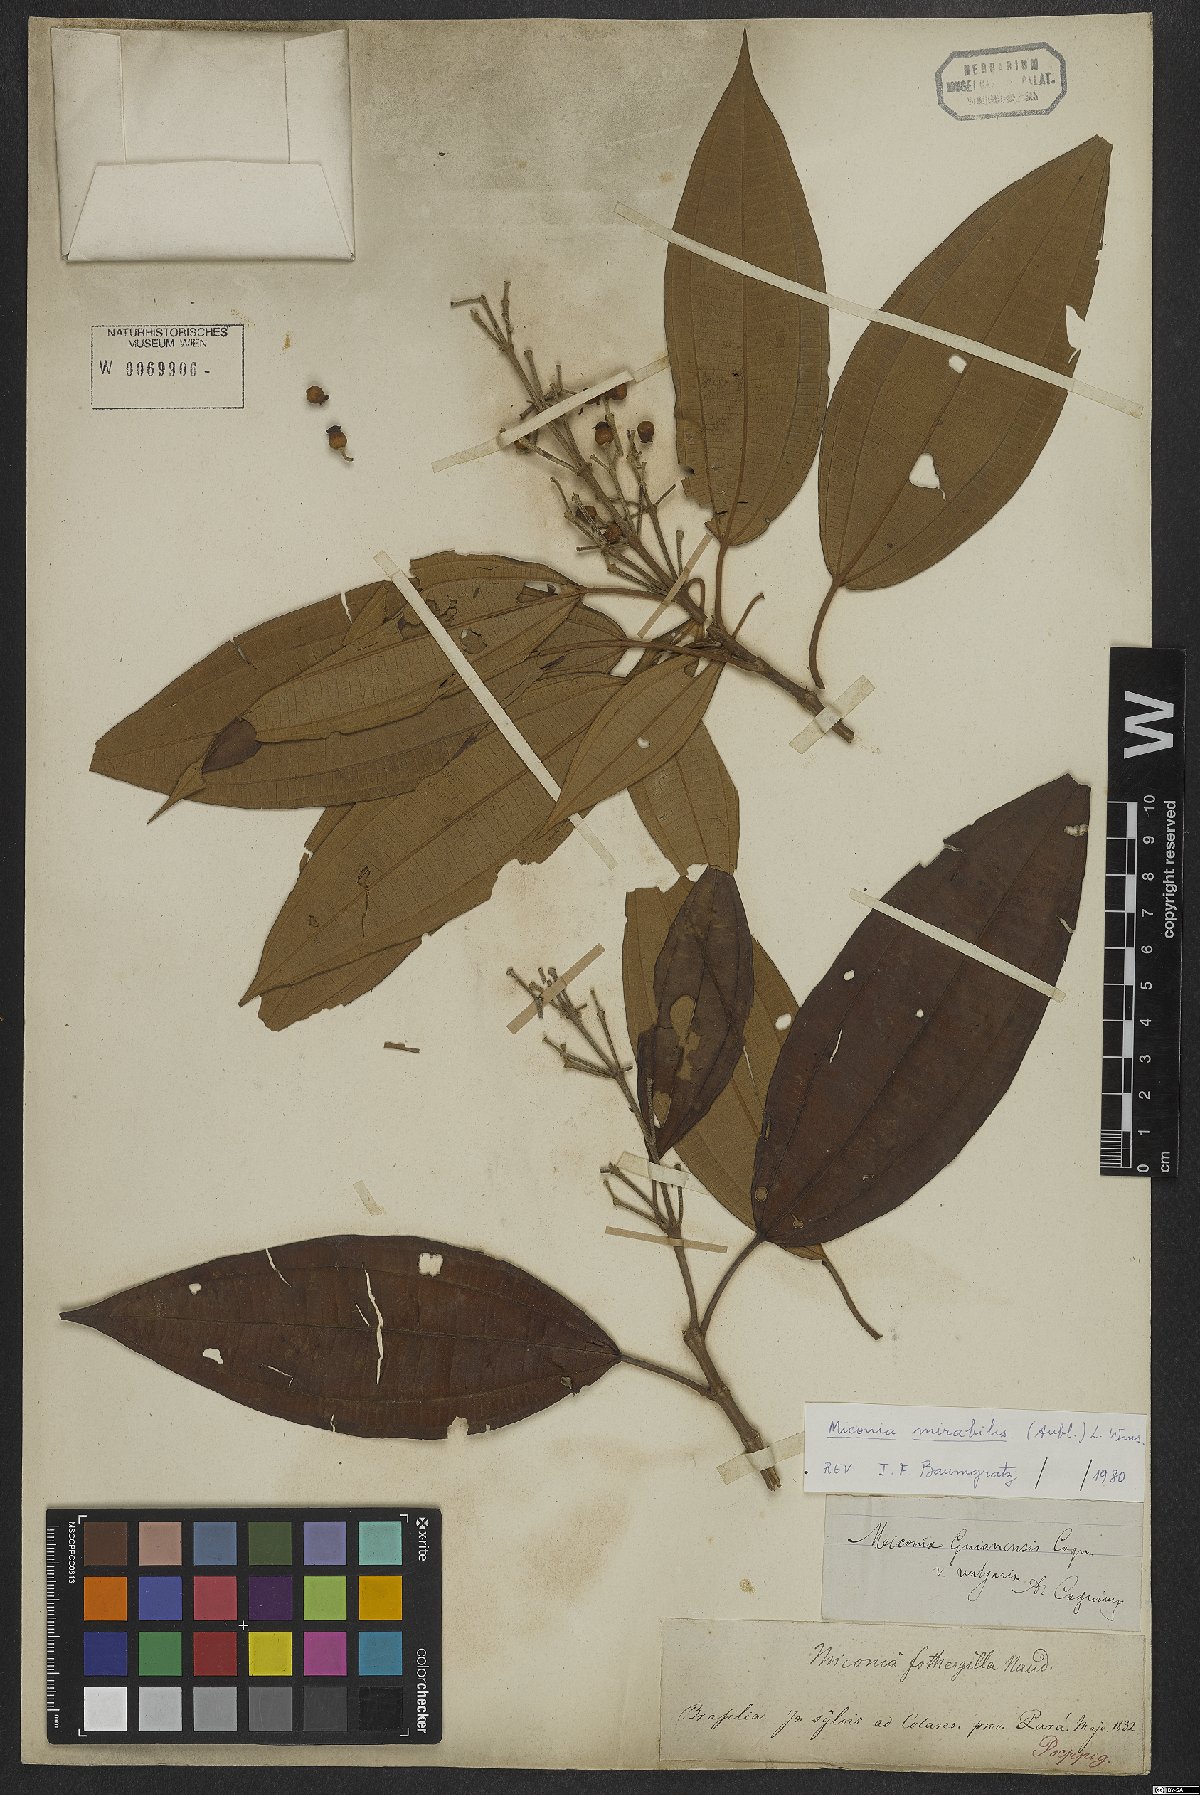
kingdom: Plantae
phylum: Tracheophyta
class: Magnoliopsida
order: Myrtales
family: Melastomataceae
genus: Miconia
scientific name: Miconia mirabilis
